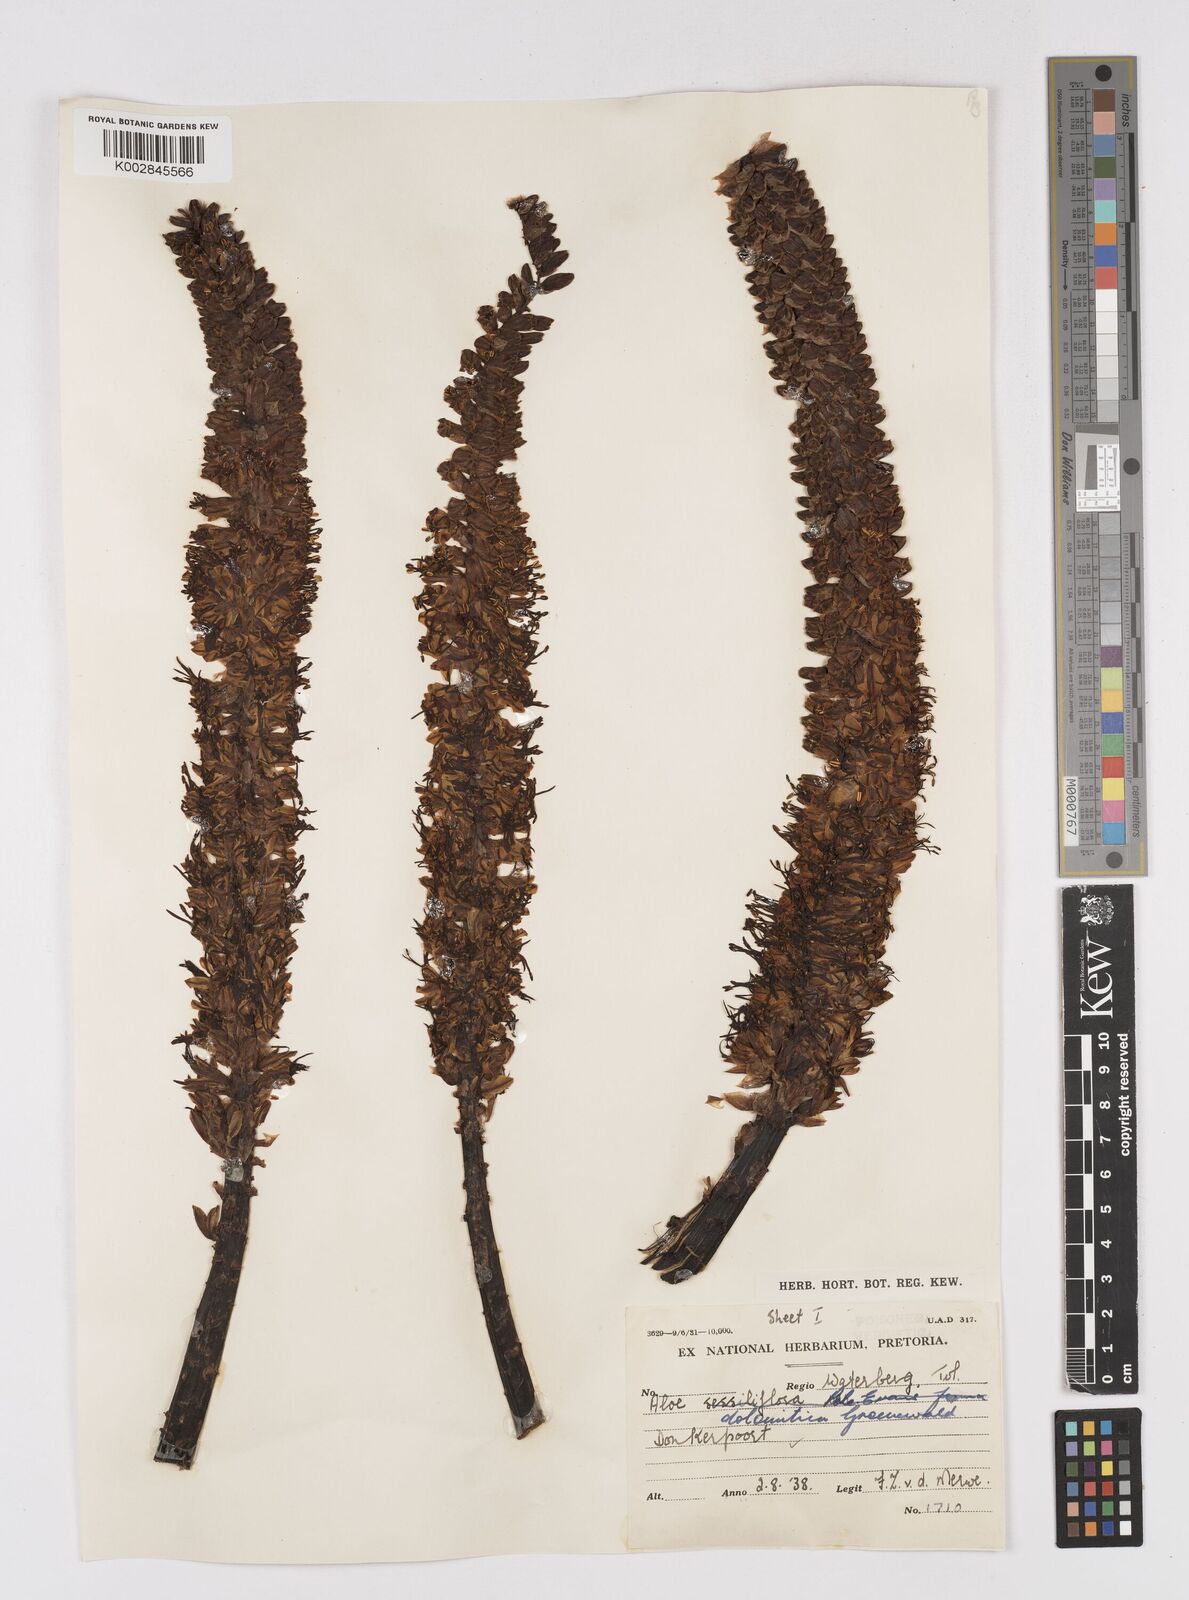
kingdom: Plantae
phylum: Tracheophyta
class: Liliopsida
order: Asparagales
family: Asphodelaceae
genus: Aloe
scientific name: Aloe vryheidensis
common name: Vryheid aloe
